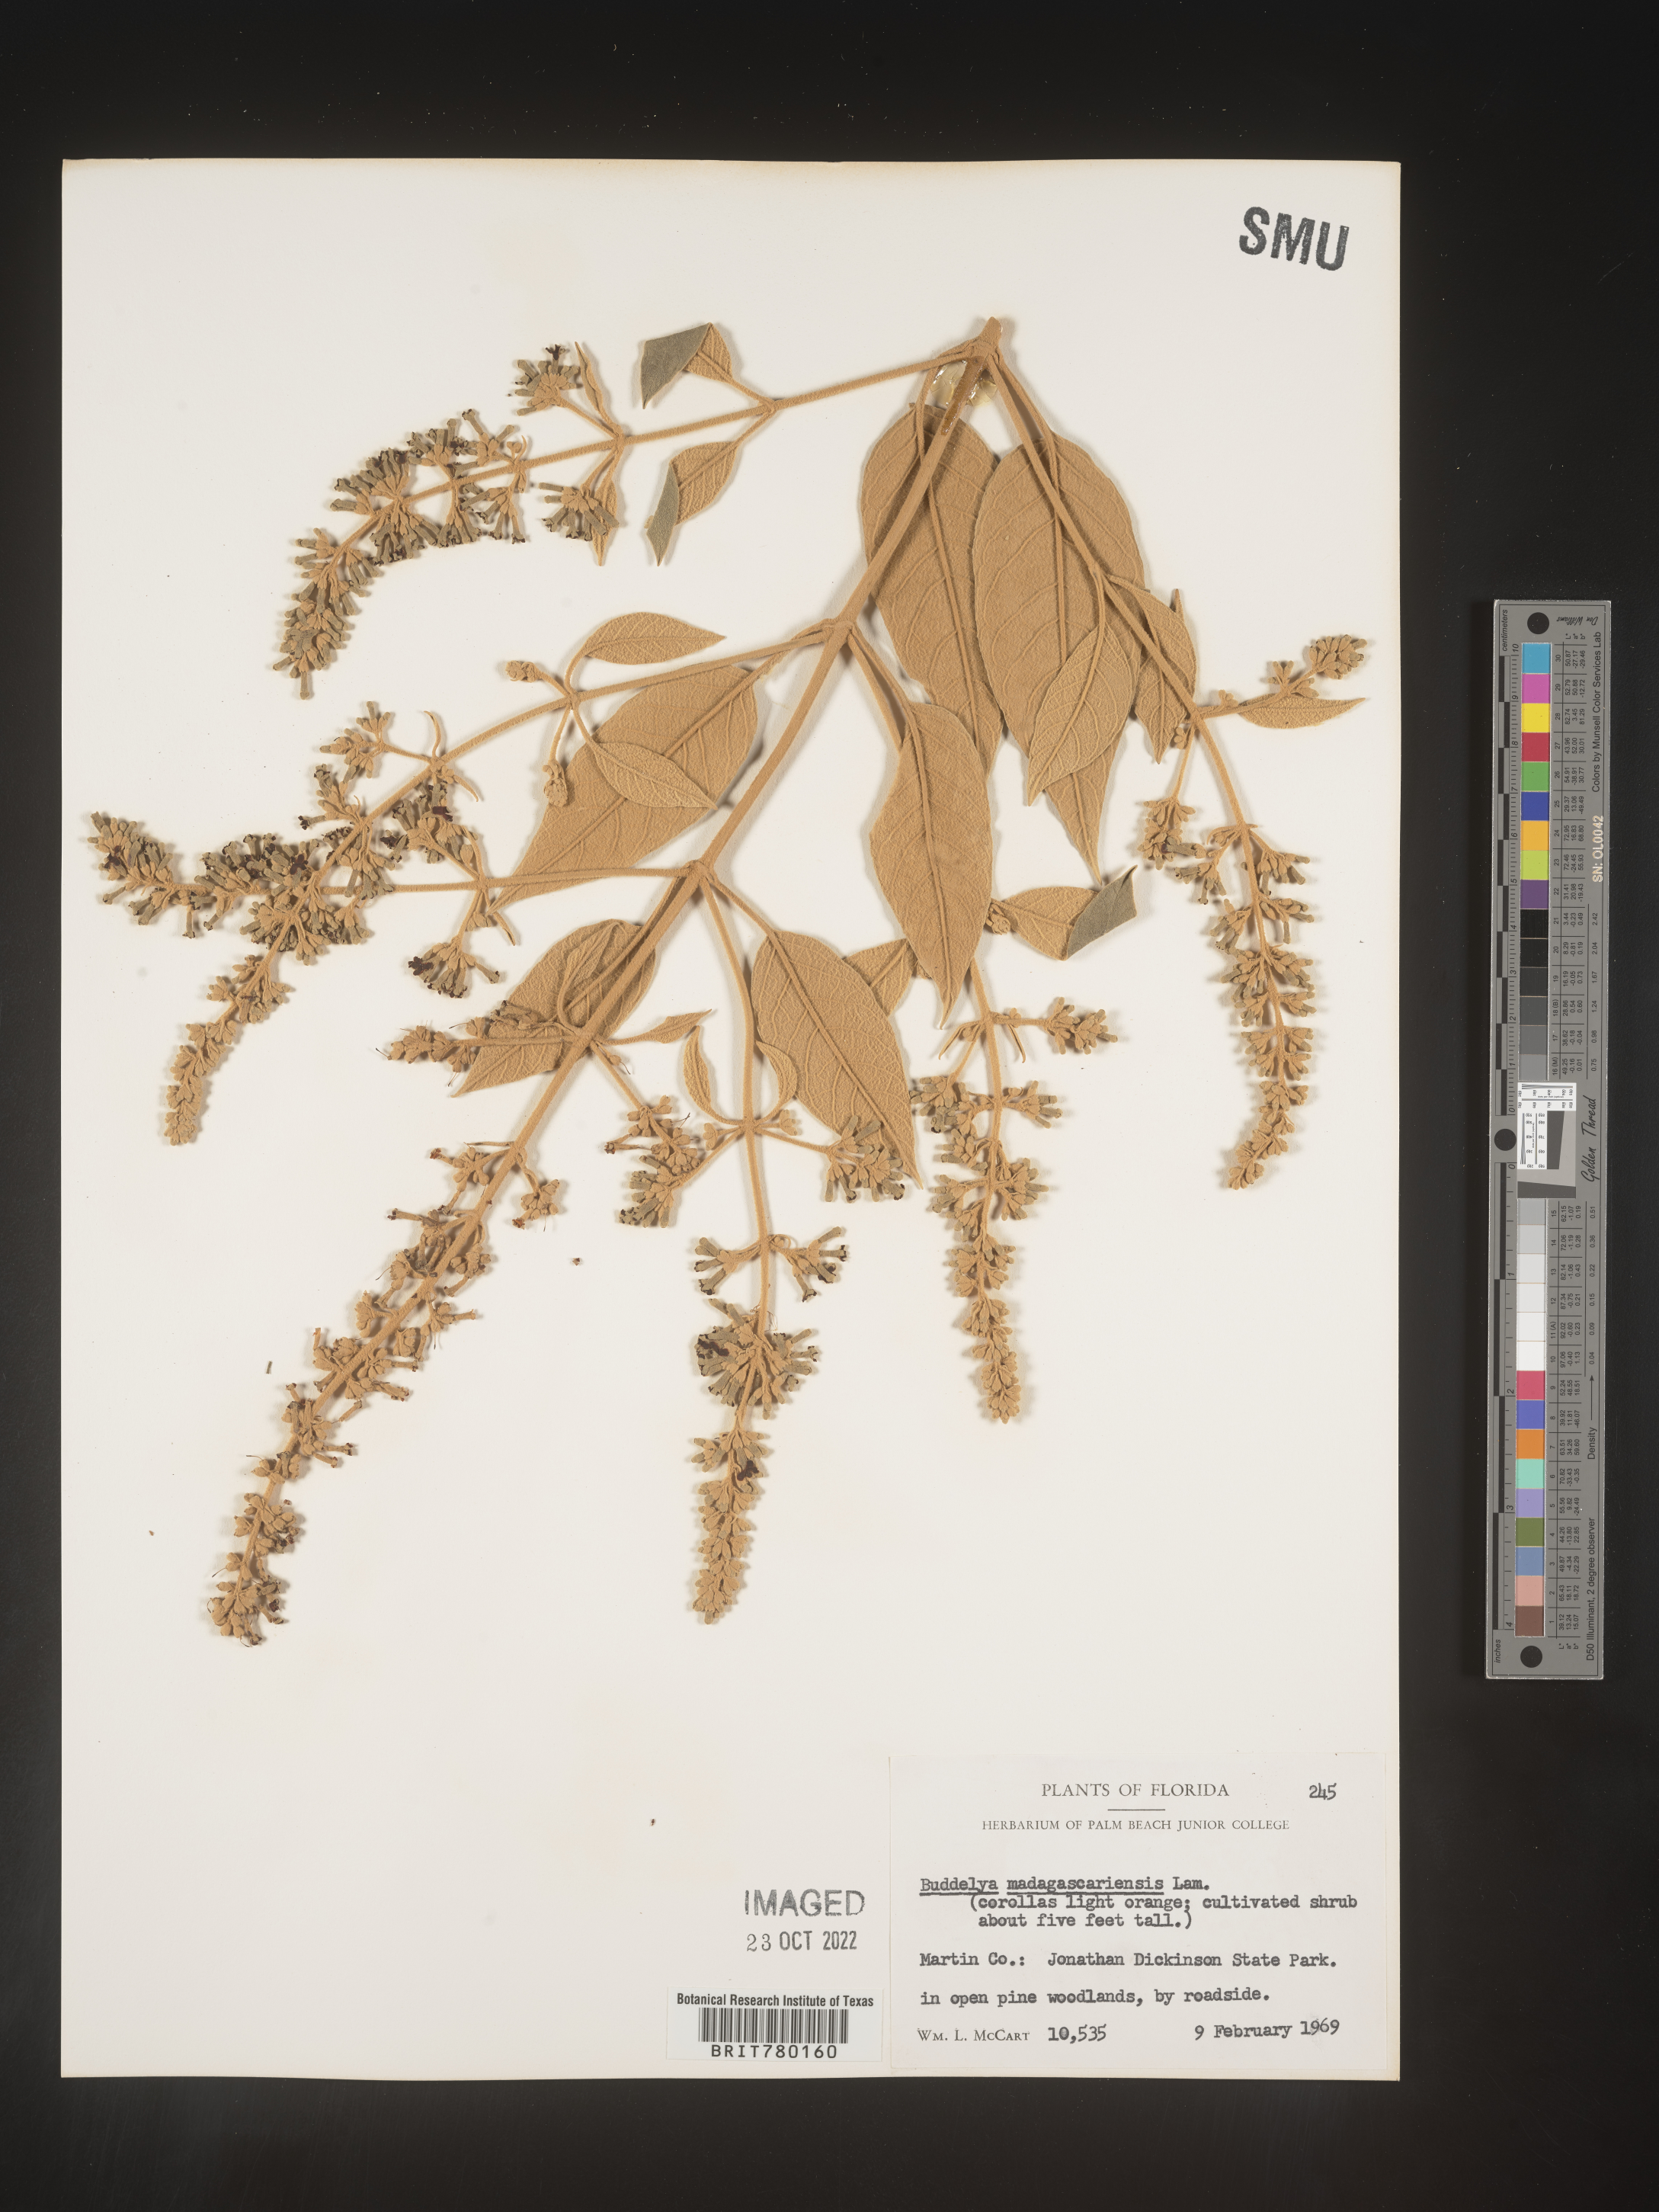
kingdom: Plantae
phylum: Tracheophyta
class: Magnoliopsida
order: Lamiales
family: Scrophulariaceae
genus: Buddleja
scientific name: Buddleja
